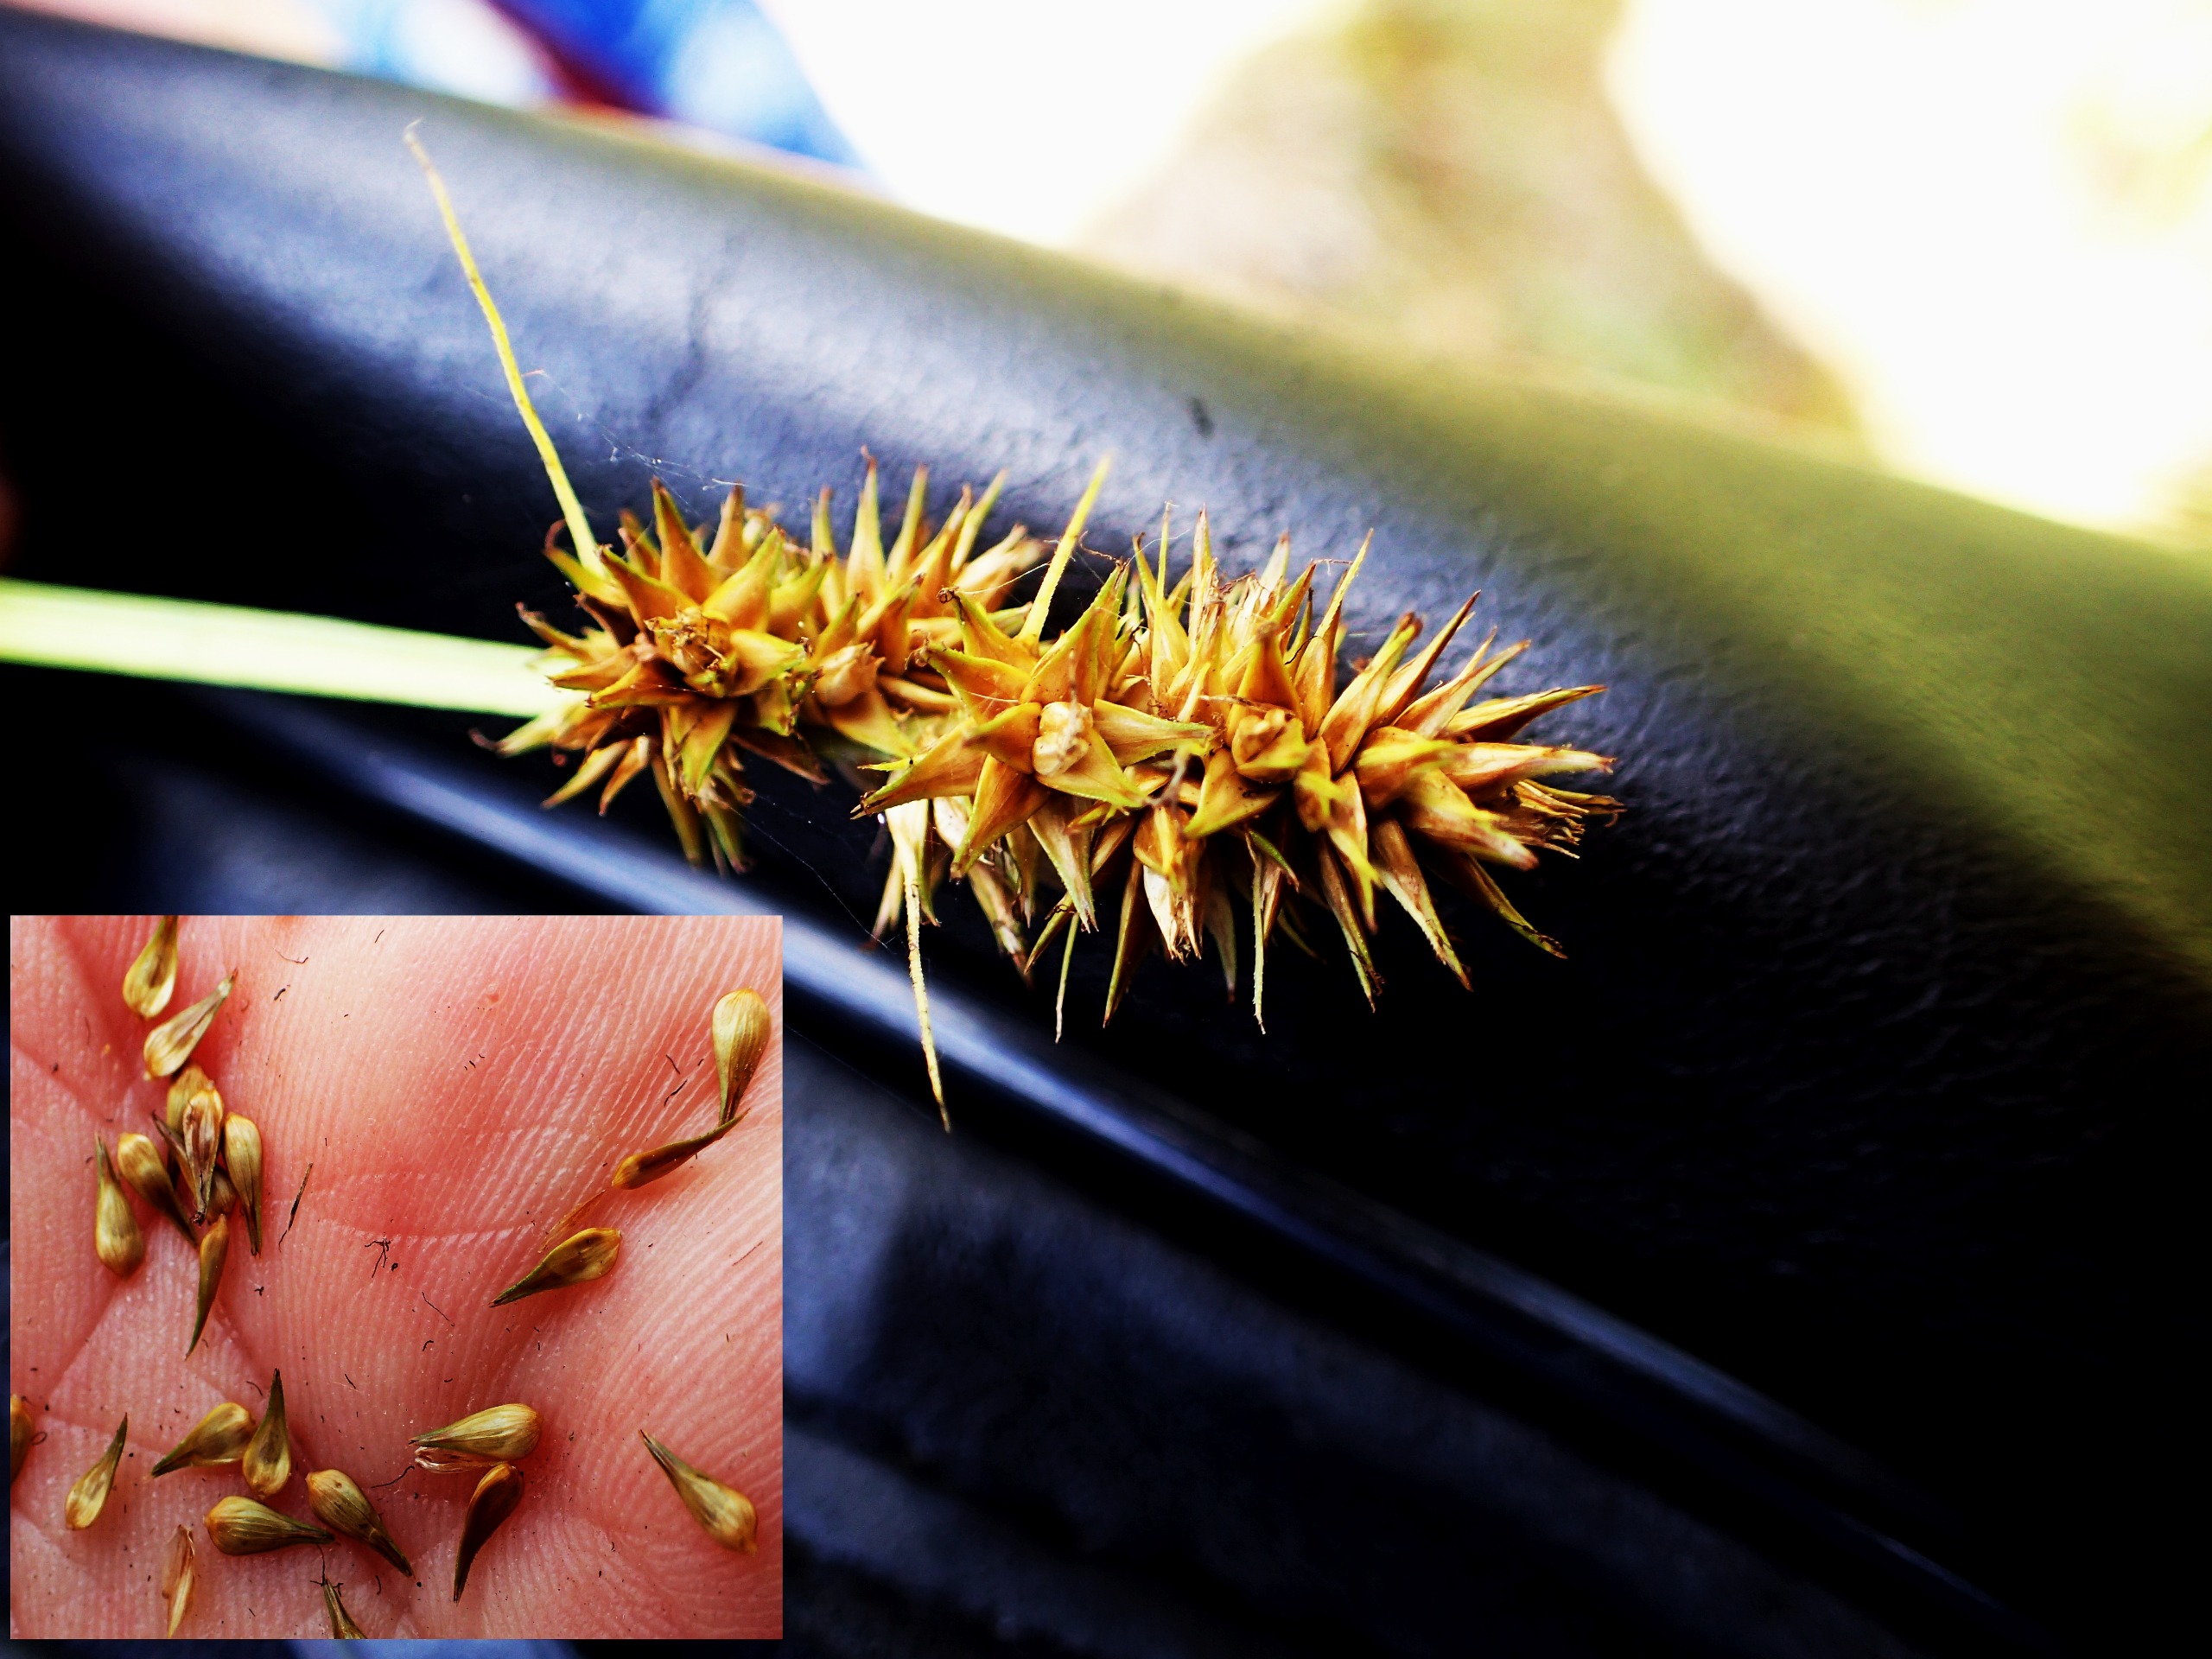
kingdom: Plantae
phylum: Tracheophyta
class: Liliopsida
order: Poales
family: Cyperaceae
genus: Carex
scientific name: Carex otrubae
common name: Sylt-star
